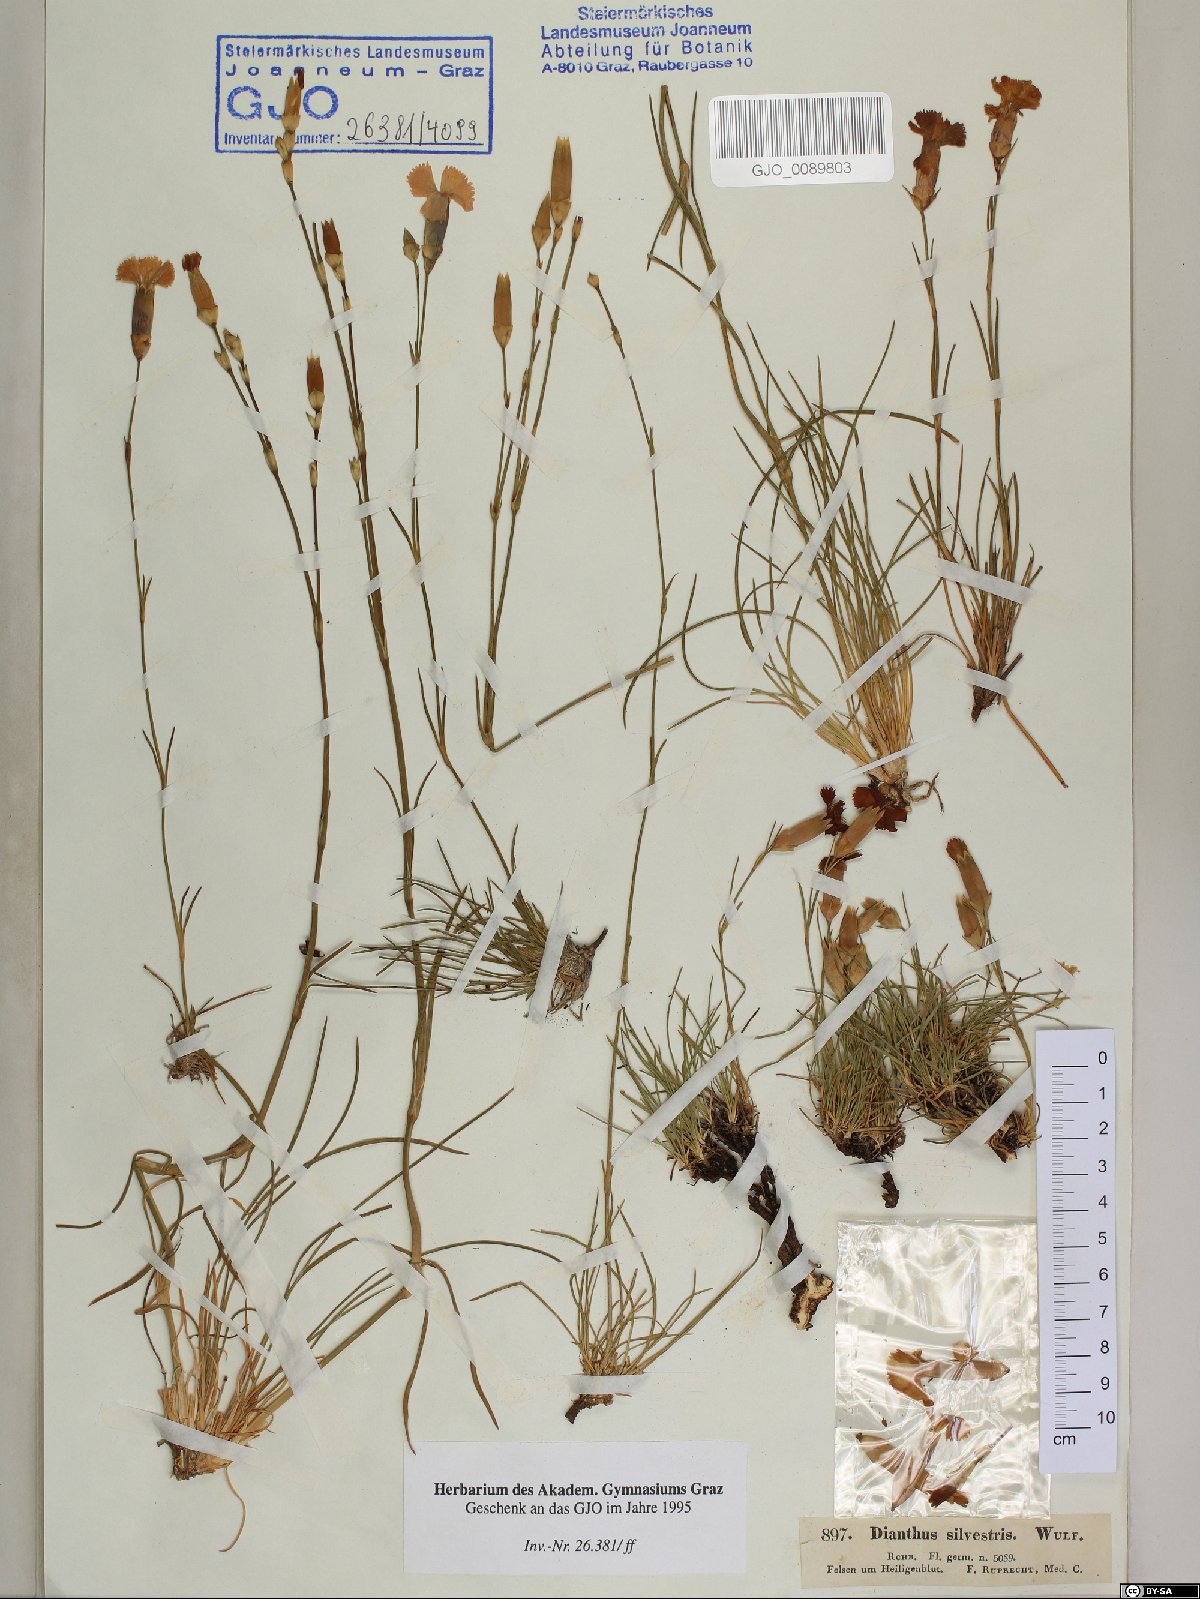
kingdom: Plantae
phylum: Tracheophyta
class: Magnoliopsida
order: Caryophyllales
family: Caryophyllaceae
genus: Dianthus
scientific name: Dianthus sylvestris
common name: Wood pink
